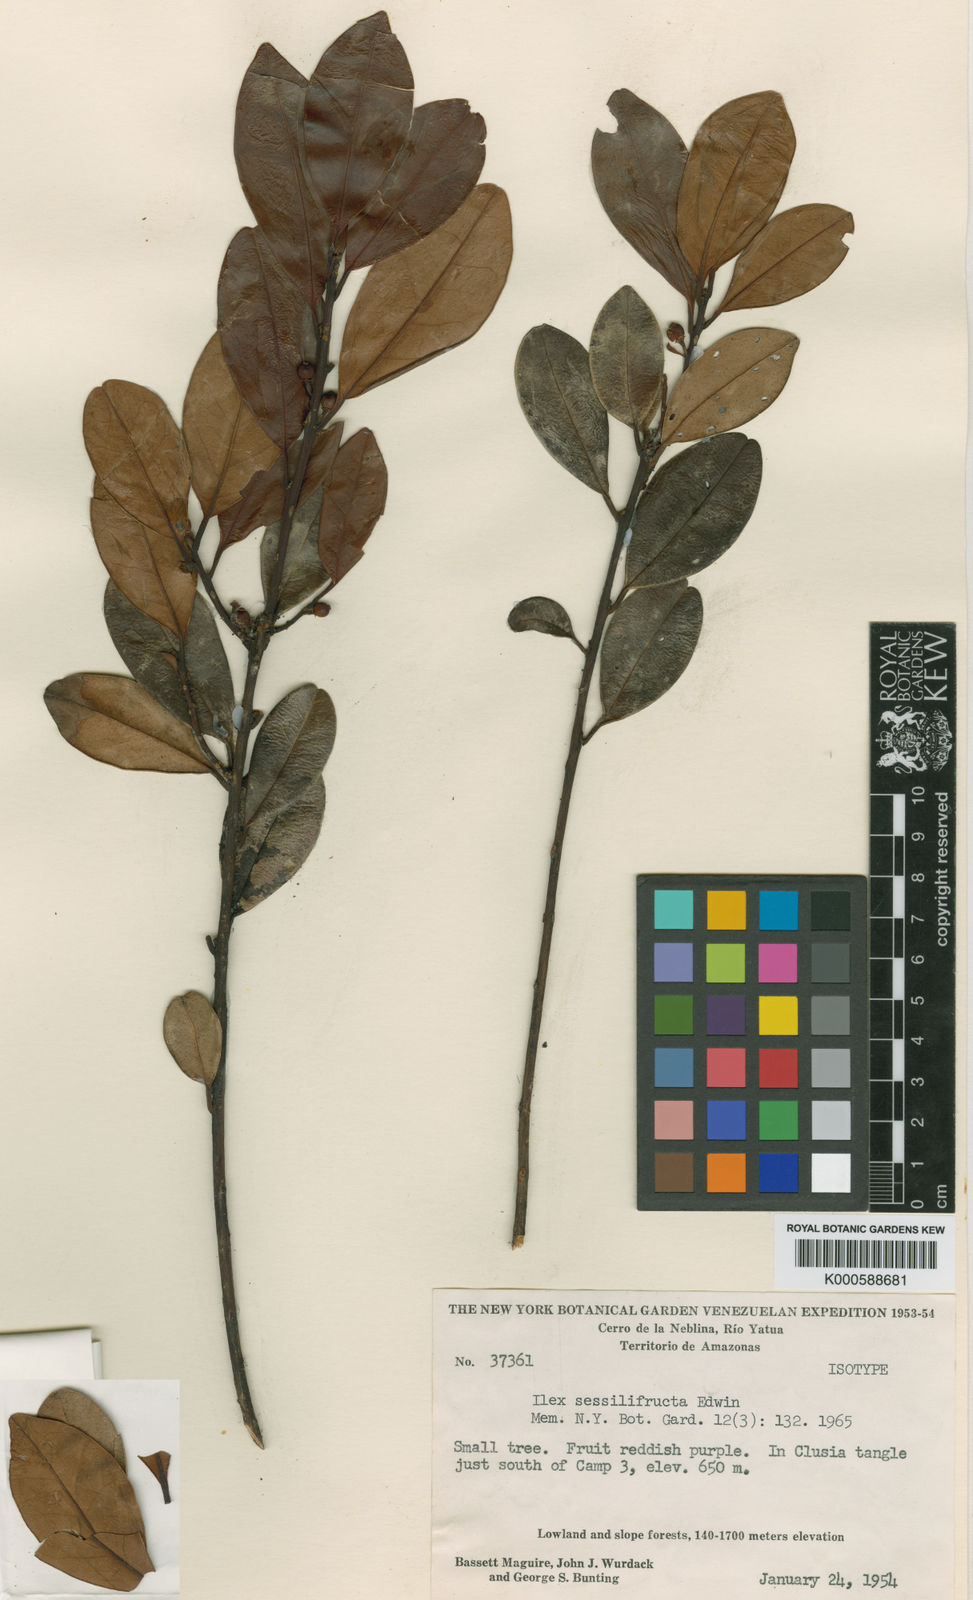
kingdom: Plantae
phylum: Tracheophyta
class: Magnoliopsida
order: Aquifoliales
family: Aquifoliaceae
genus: Ilex
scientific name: Ilex sessilifructa
